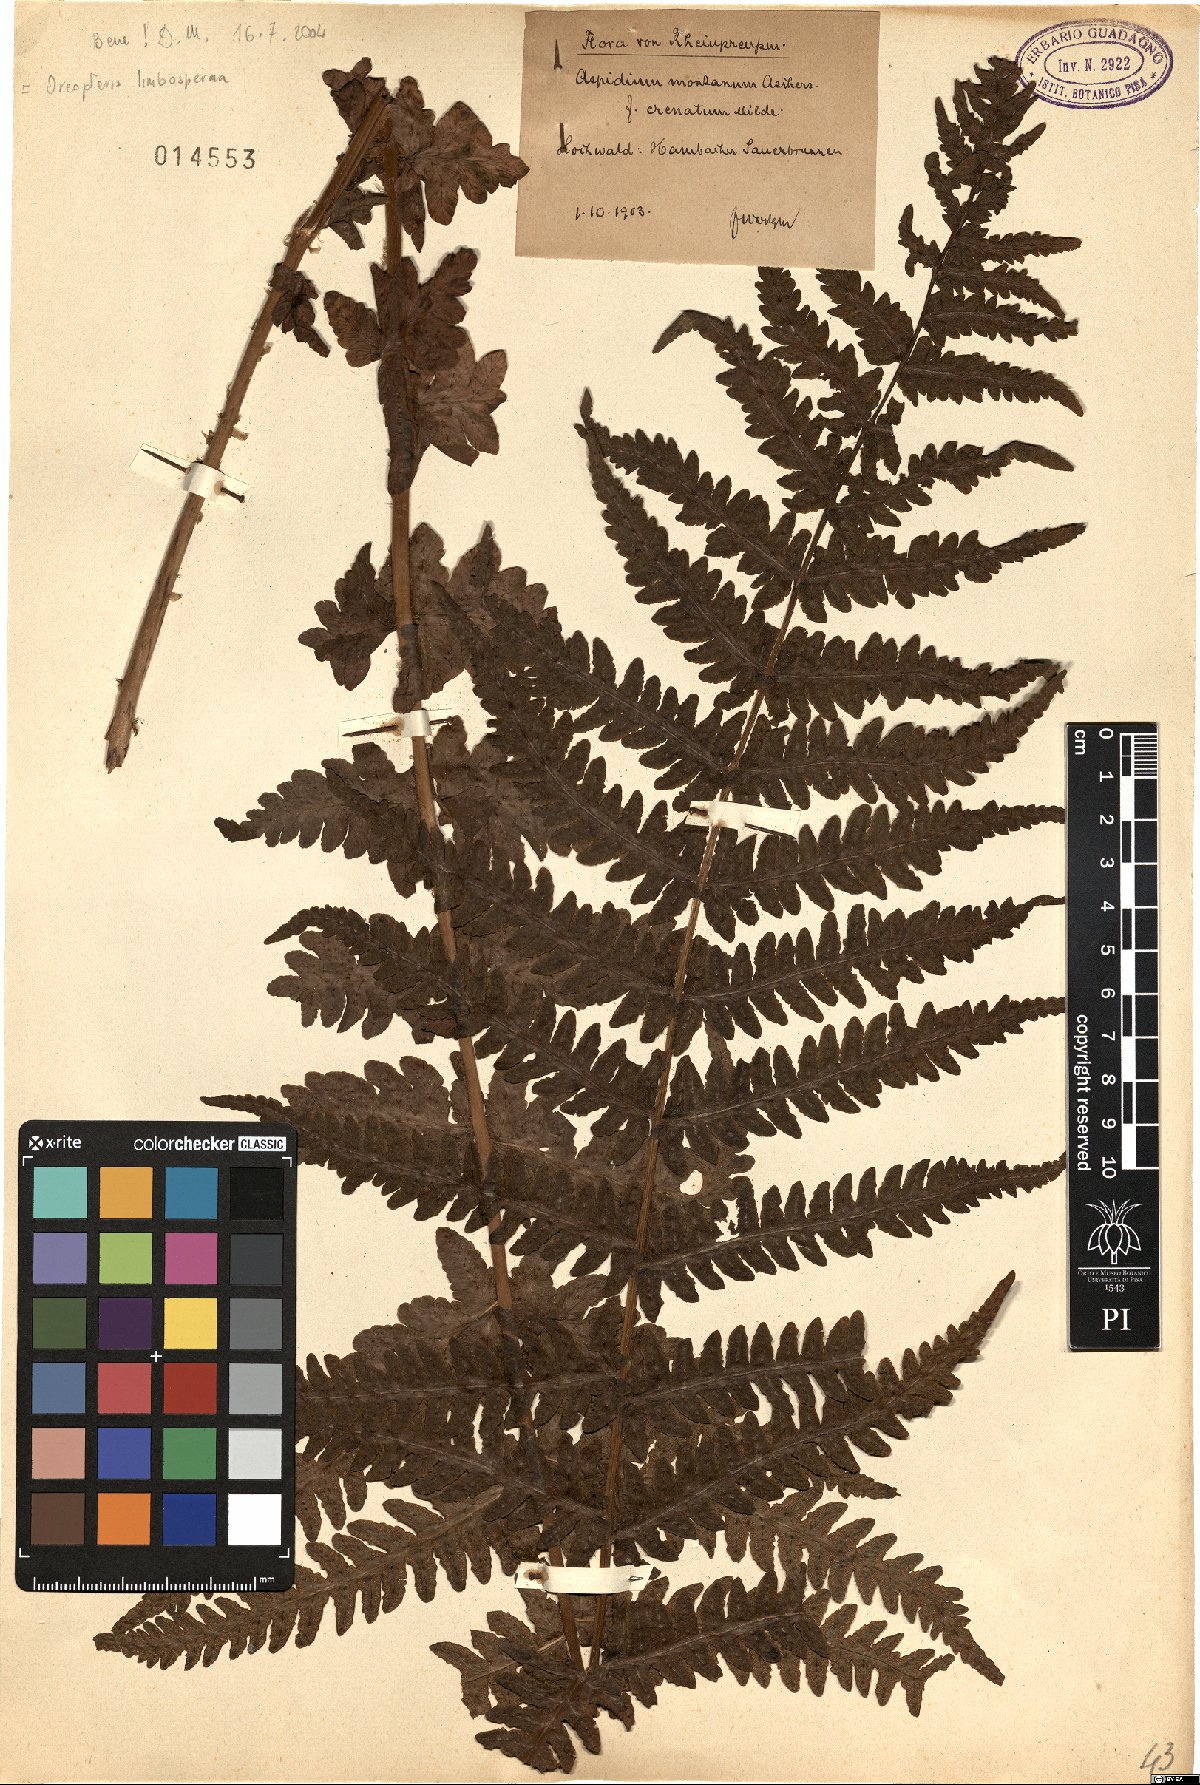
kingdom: Plantae
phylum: Tracheophyta
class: Polypodiopsida
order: Polypodiales
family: Thelypteridaceae
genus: Oreopteris
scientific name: Oreopteris limbosperma
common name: Lemon-scented fern
